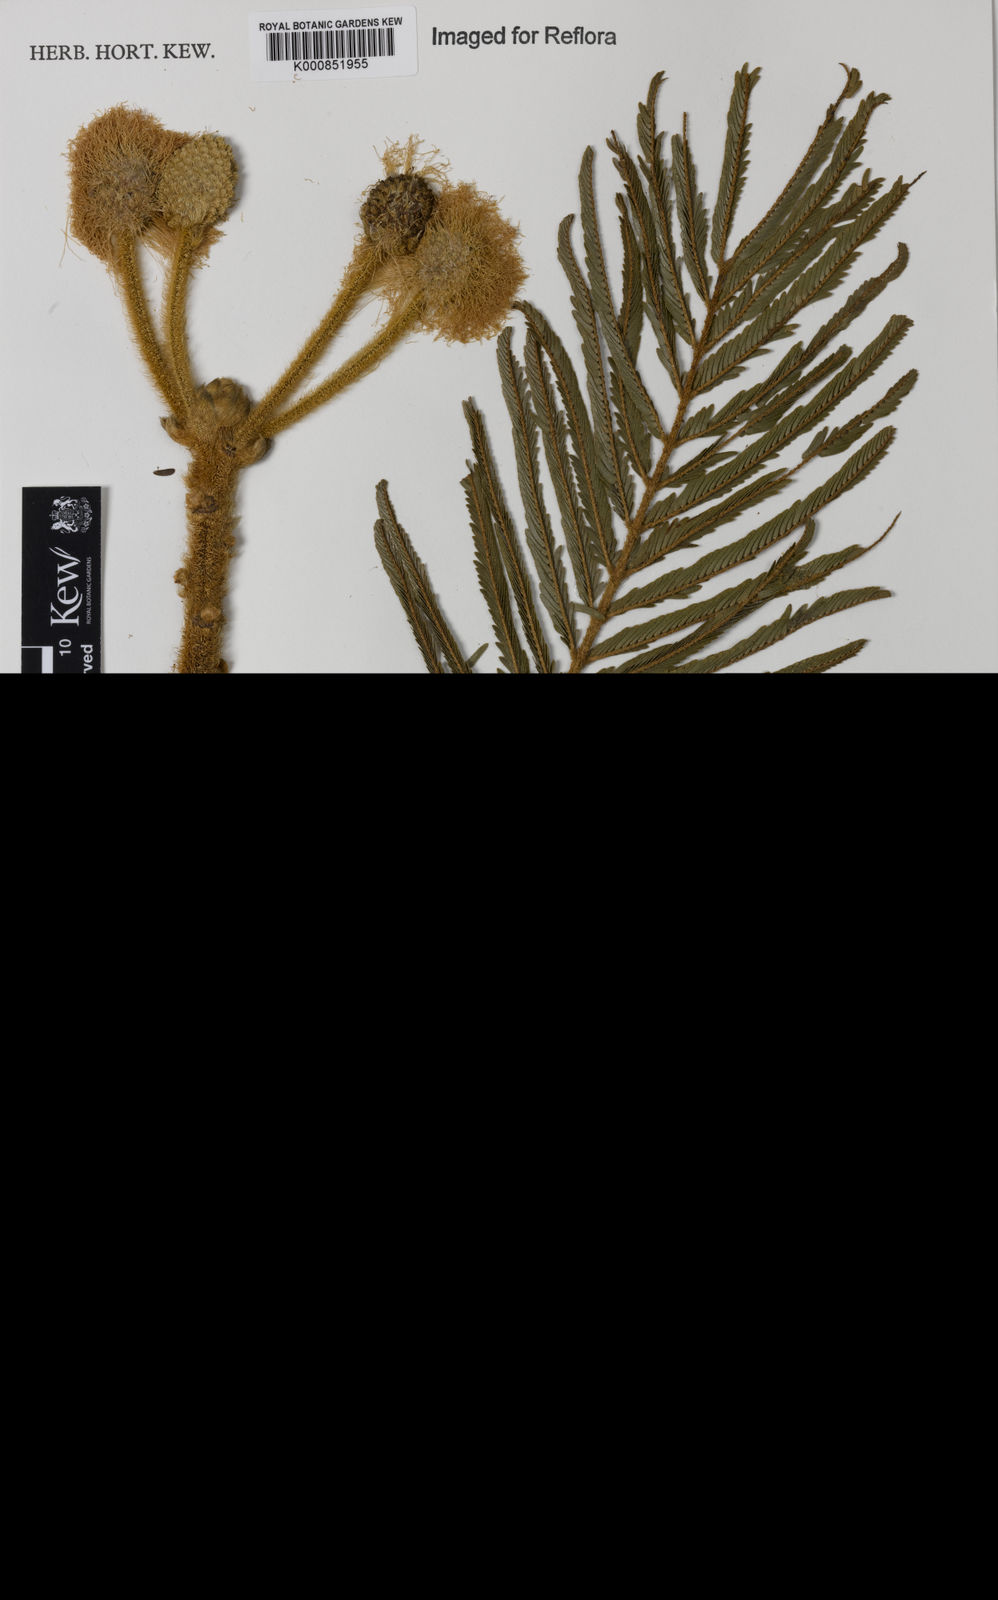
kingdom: Plantae
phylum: Tracheophyta
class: Magnoliopsida
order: Fabales
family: Fabaceae
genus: Mimosa
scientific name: Mimosa claussenii
